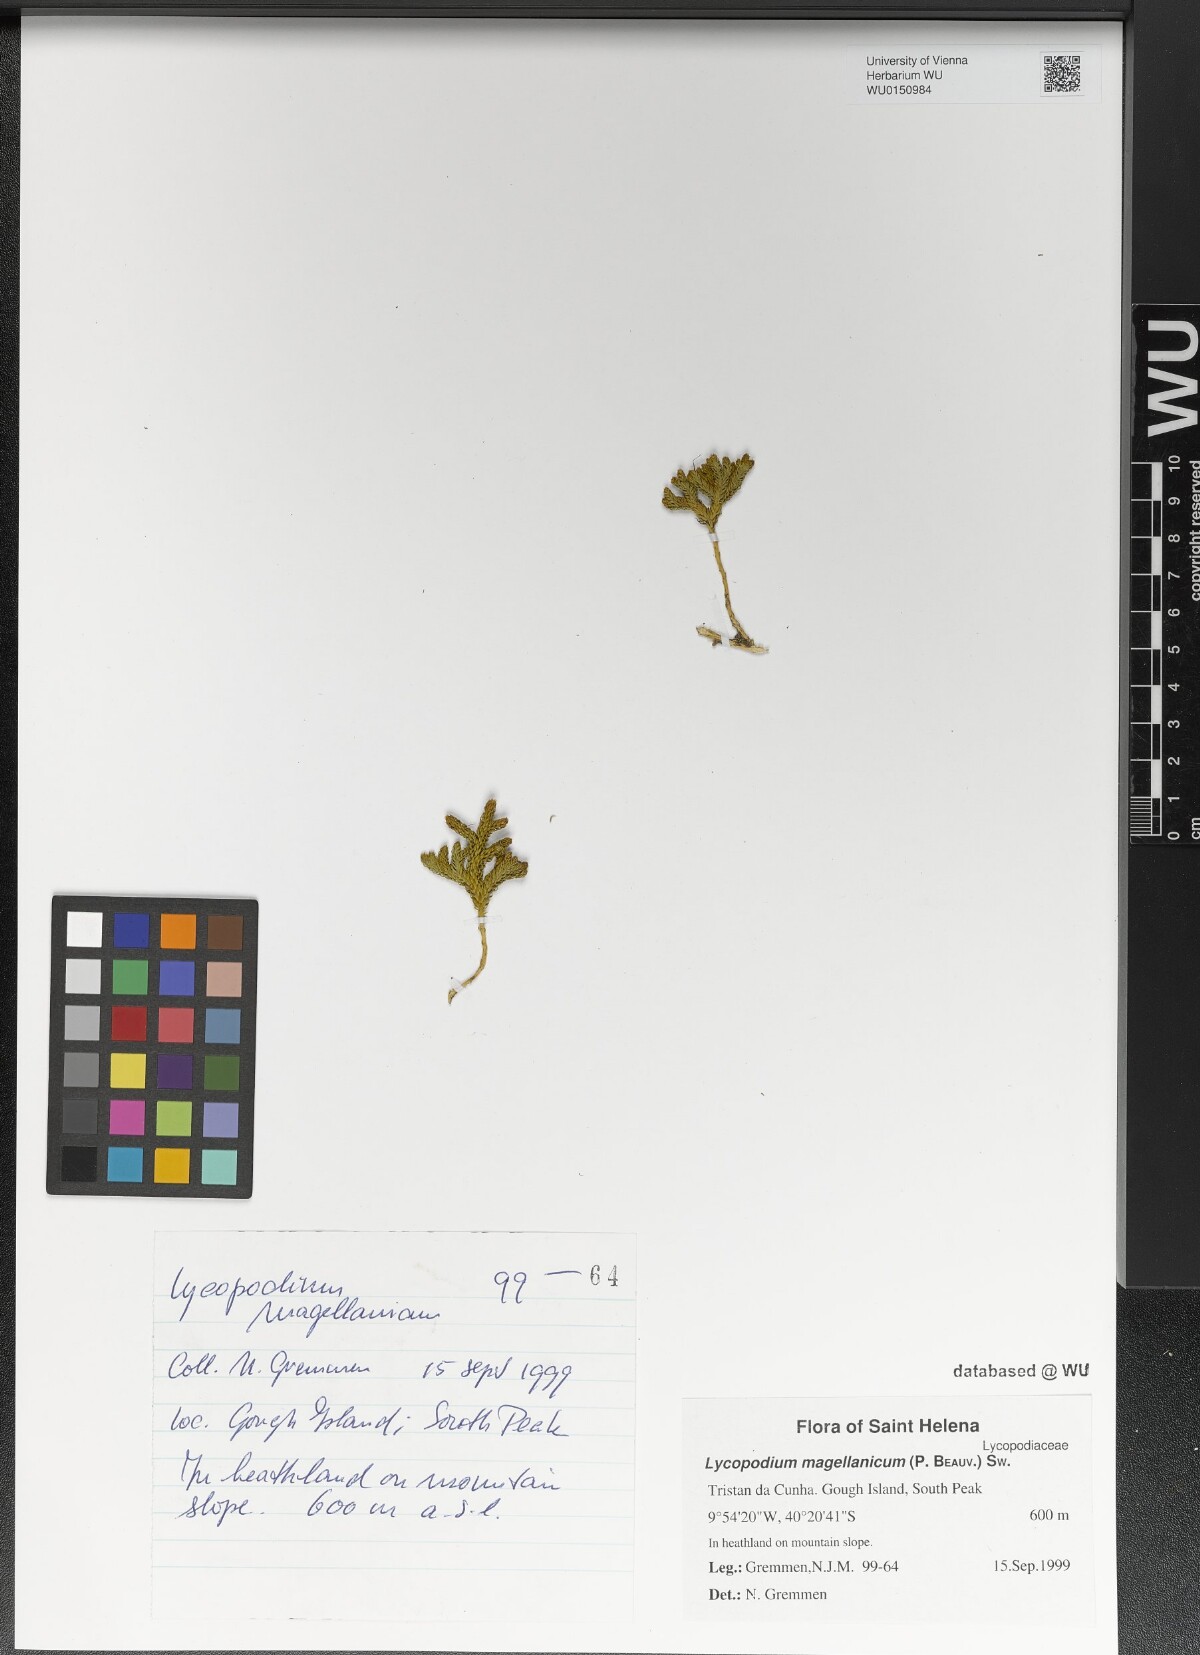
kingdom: Plantae
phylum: Tracheophyta
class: Lycopodiopsida
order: Lycopodiales
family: Lycopodiaceae
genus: Austrolycopodium
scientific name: Austrolycopodium magellanicum
